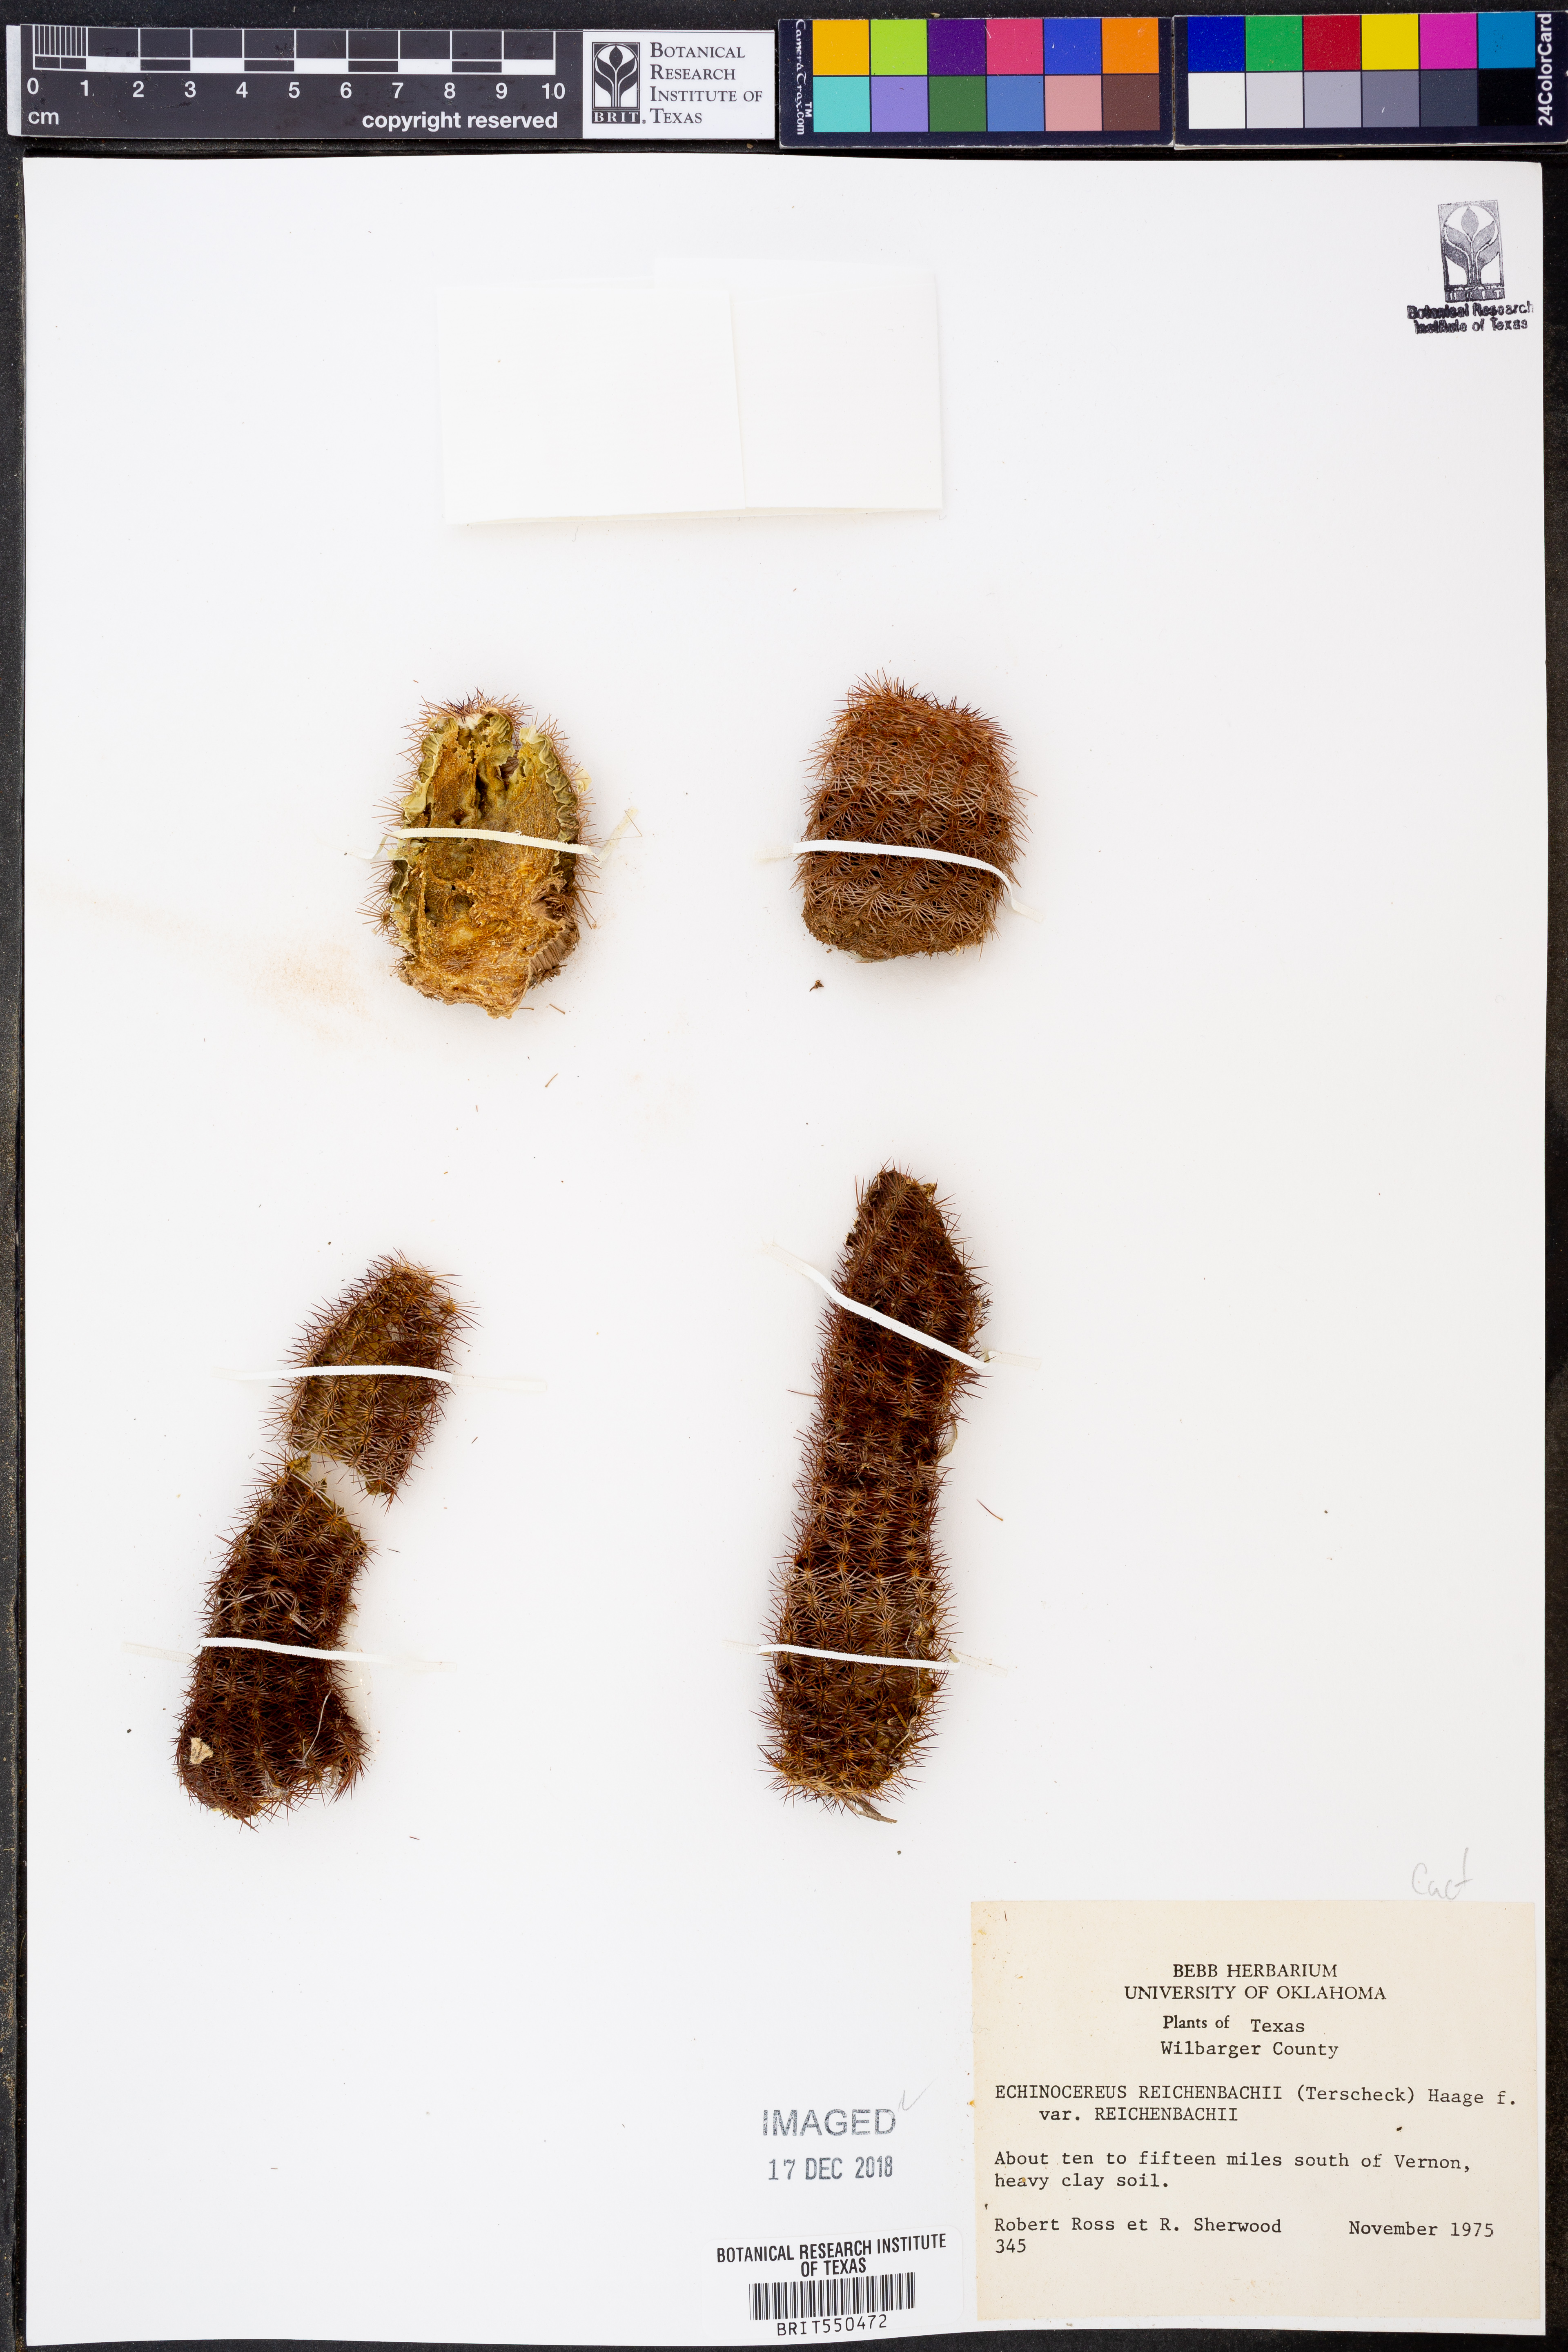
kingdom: Plantae
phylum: Tracheophyta
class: Magnoliopsida
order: Caryophyllales
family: Cactaceae
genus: Echinocereus
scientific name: Echinocereus reichenbachii
